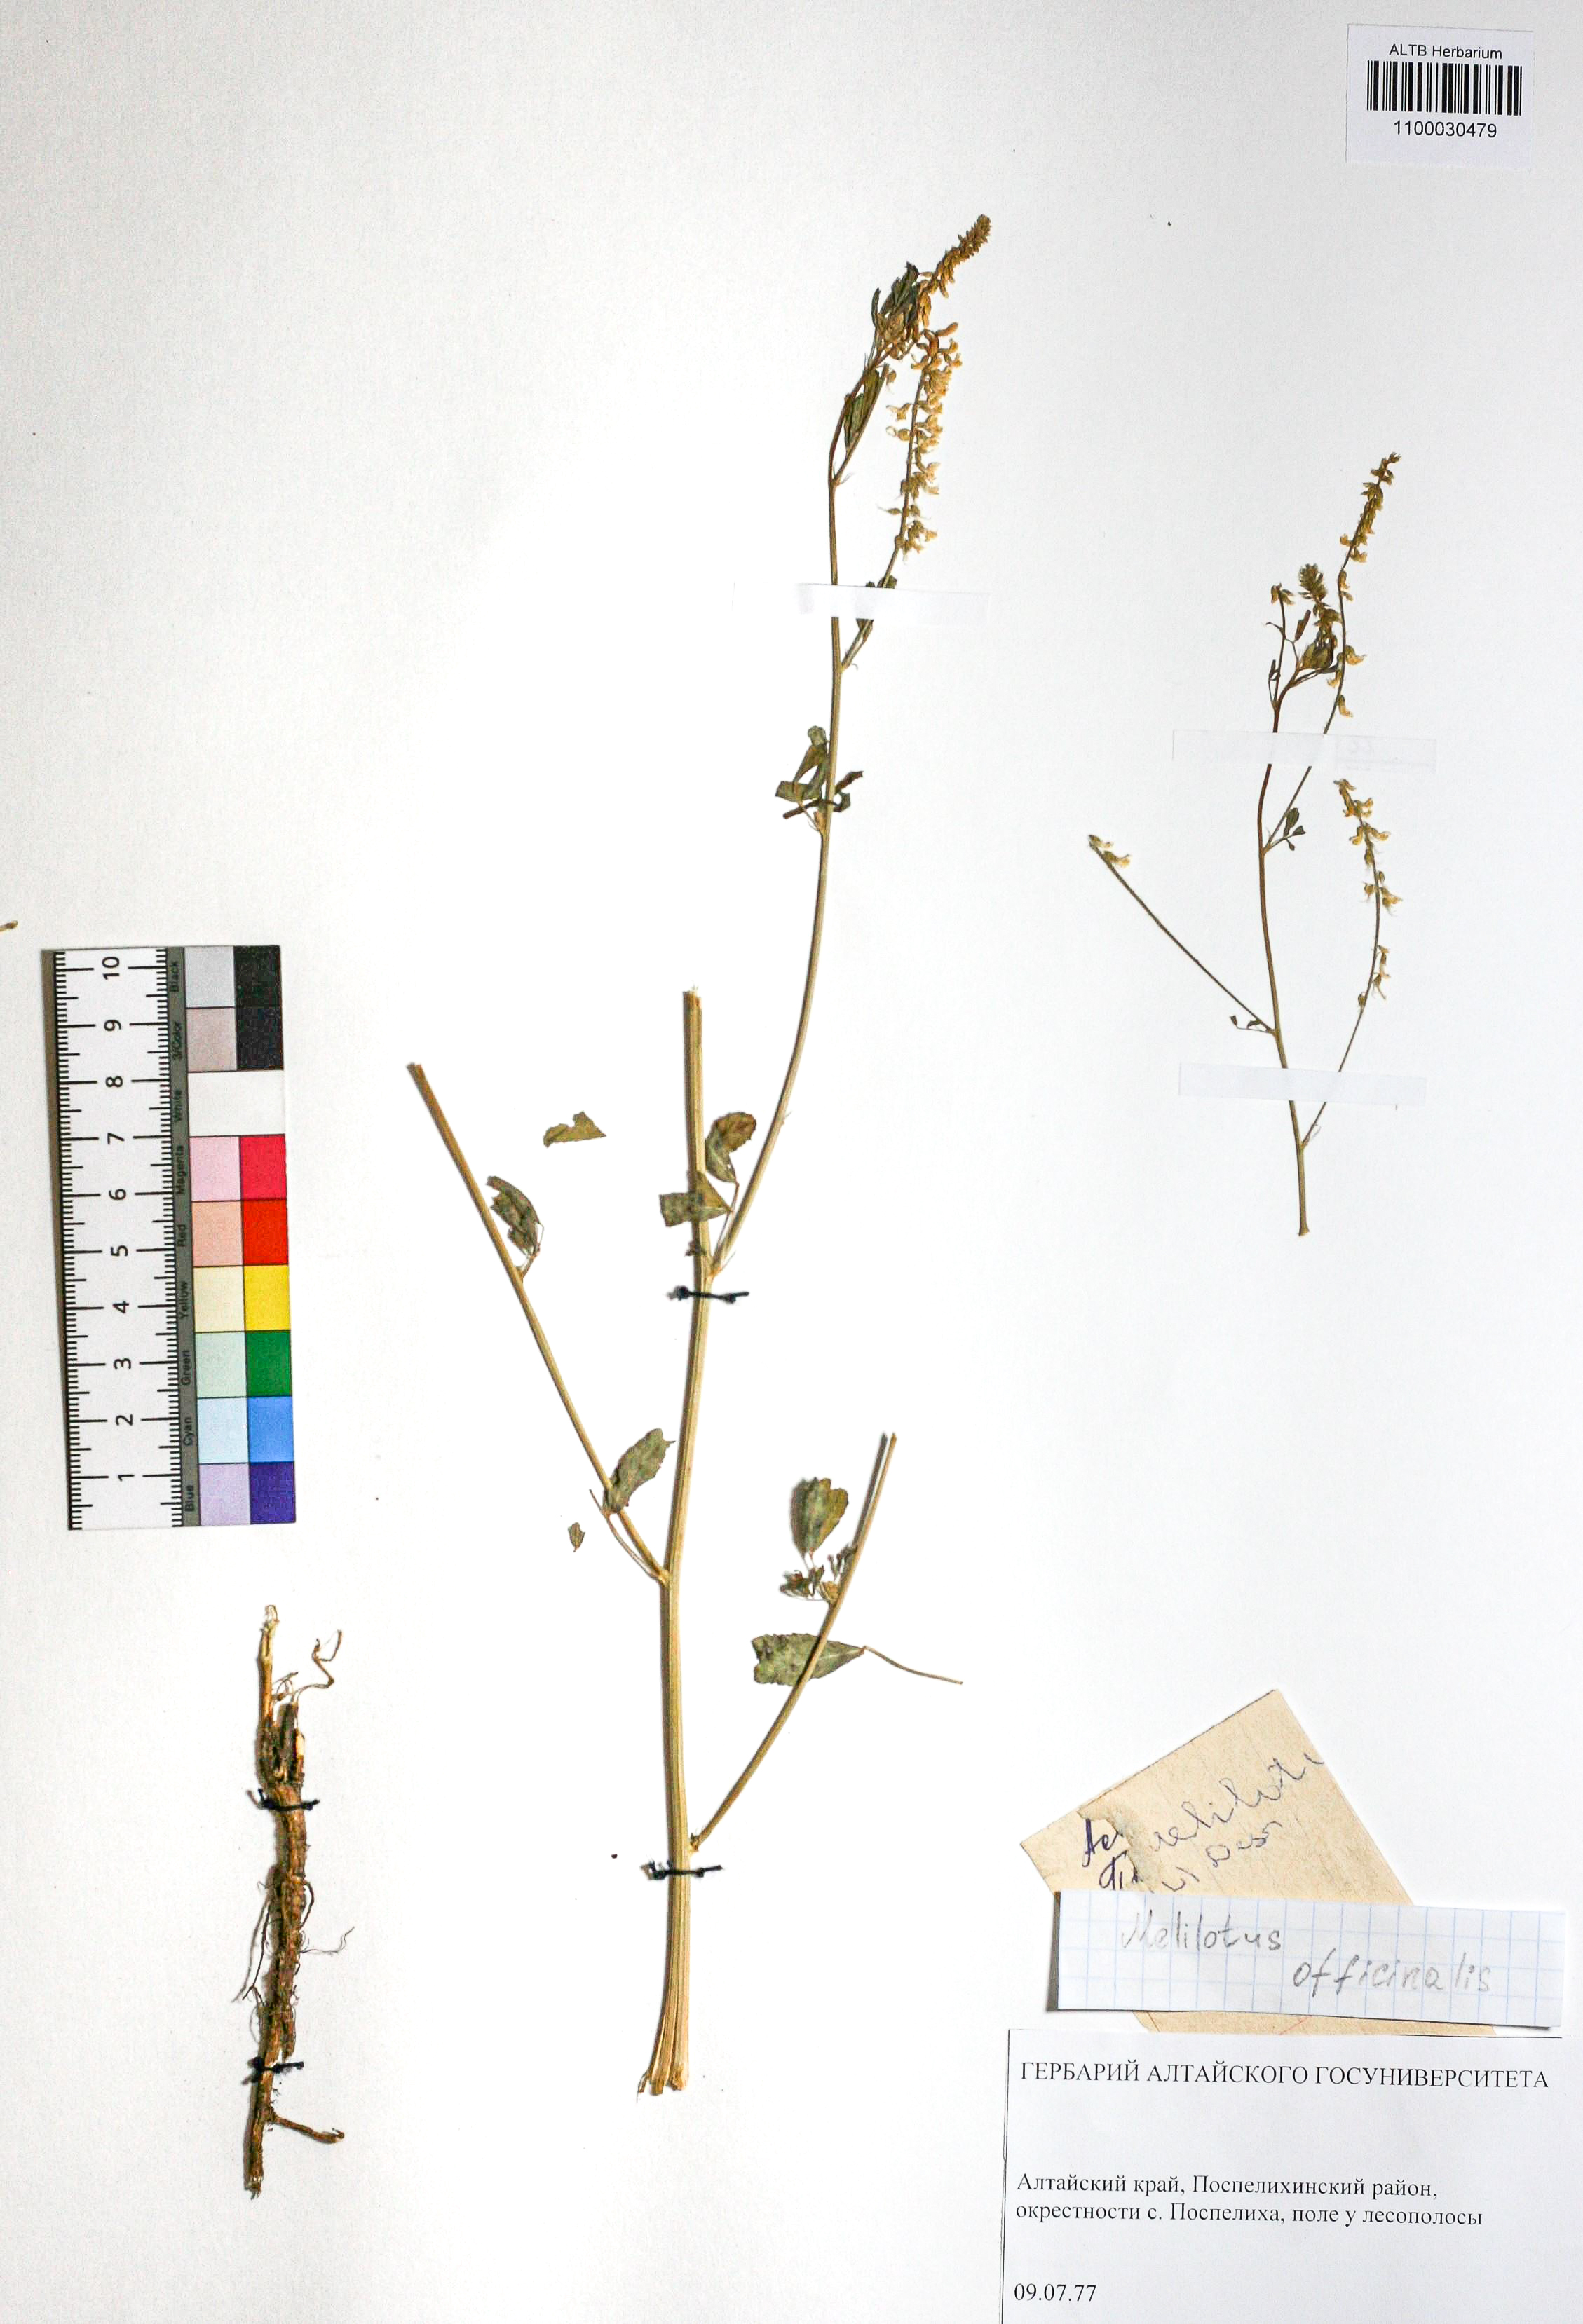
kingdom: Plantae
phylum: Tracheophyta
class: Magnoliopsida
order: Fabales
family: Fabaceae
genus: Melilotus
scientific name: Melilotus officinalis
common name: Sweetclover
